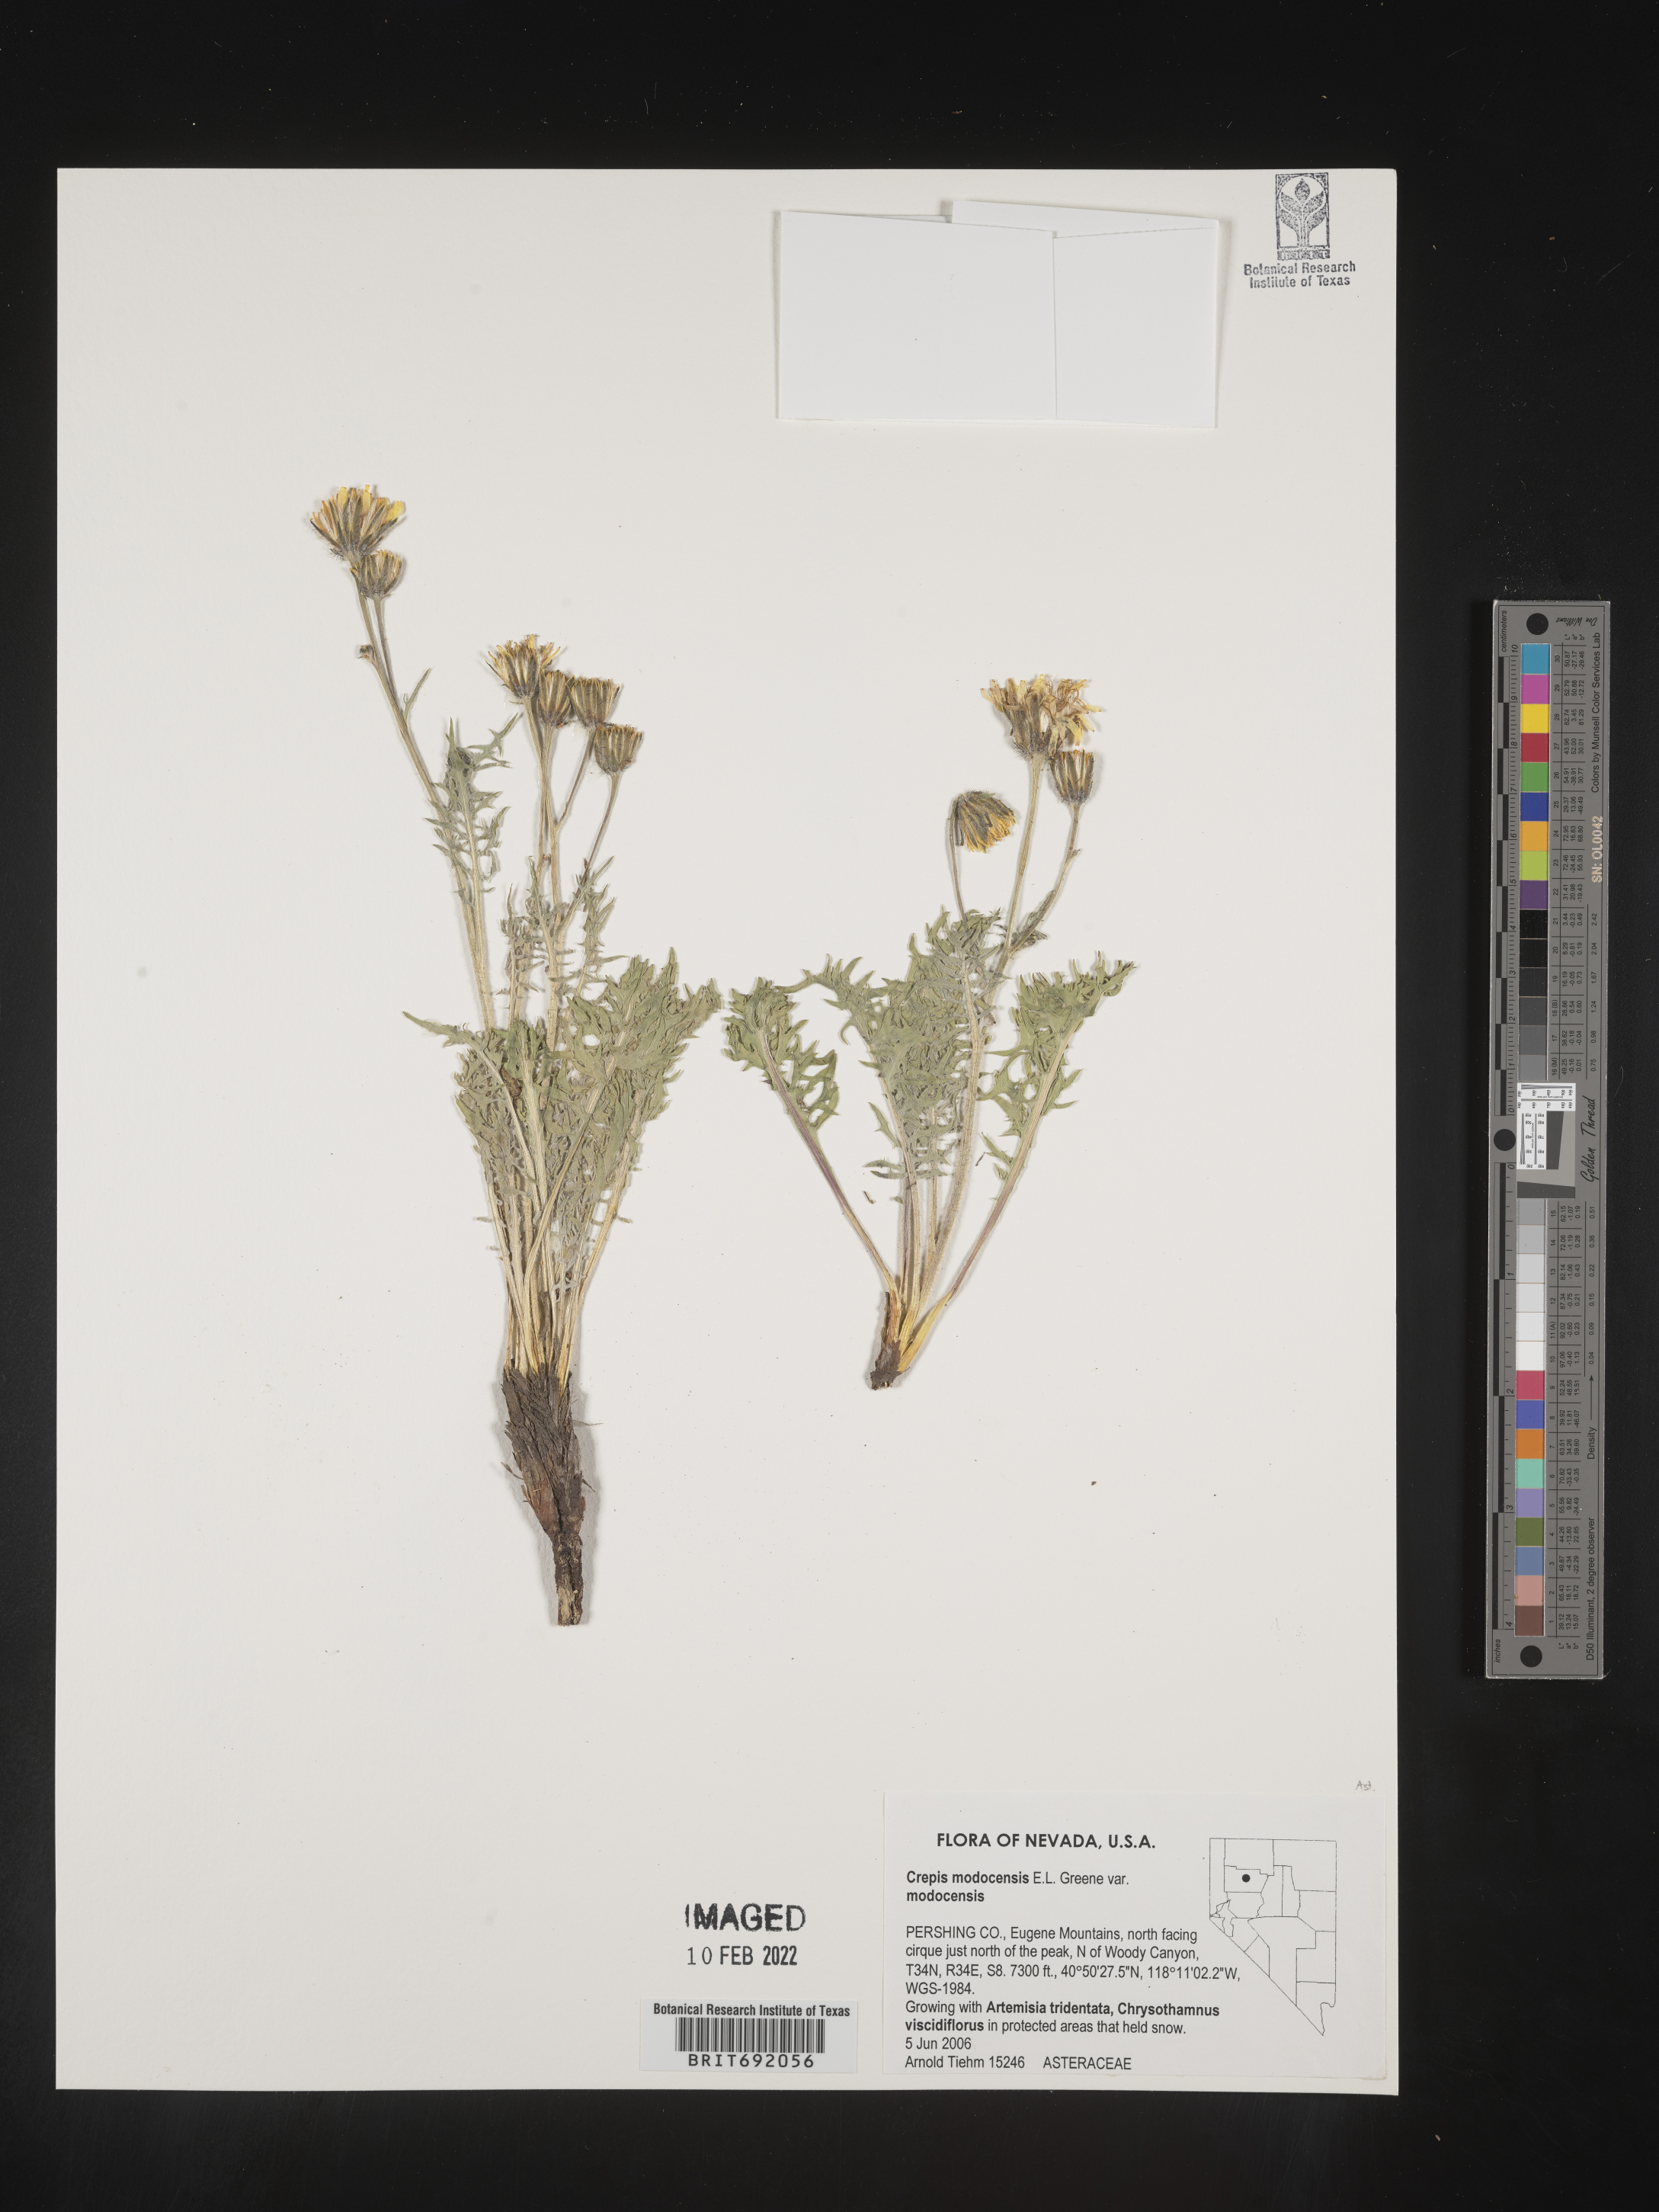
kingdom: Plantae
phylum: Tracheophyta
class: Magnoliopsida
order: Asterales
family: Asteraceae
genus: Crepis
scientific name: Crepis
